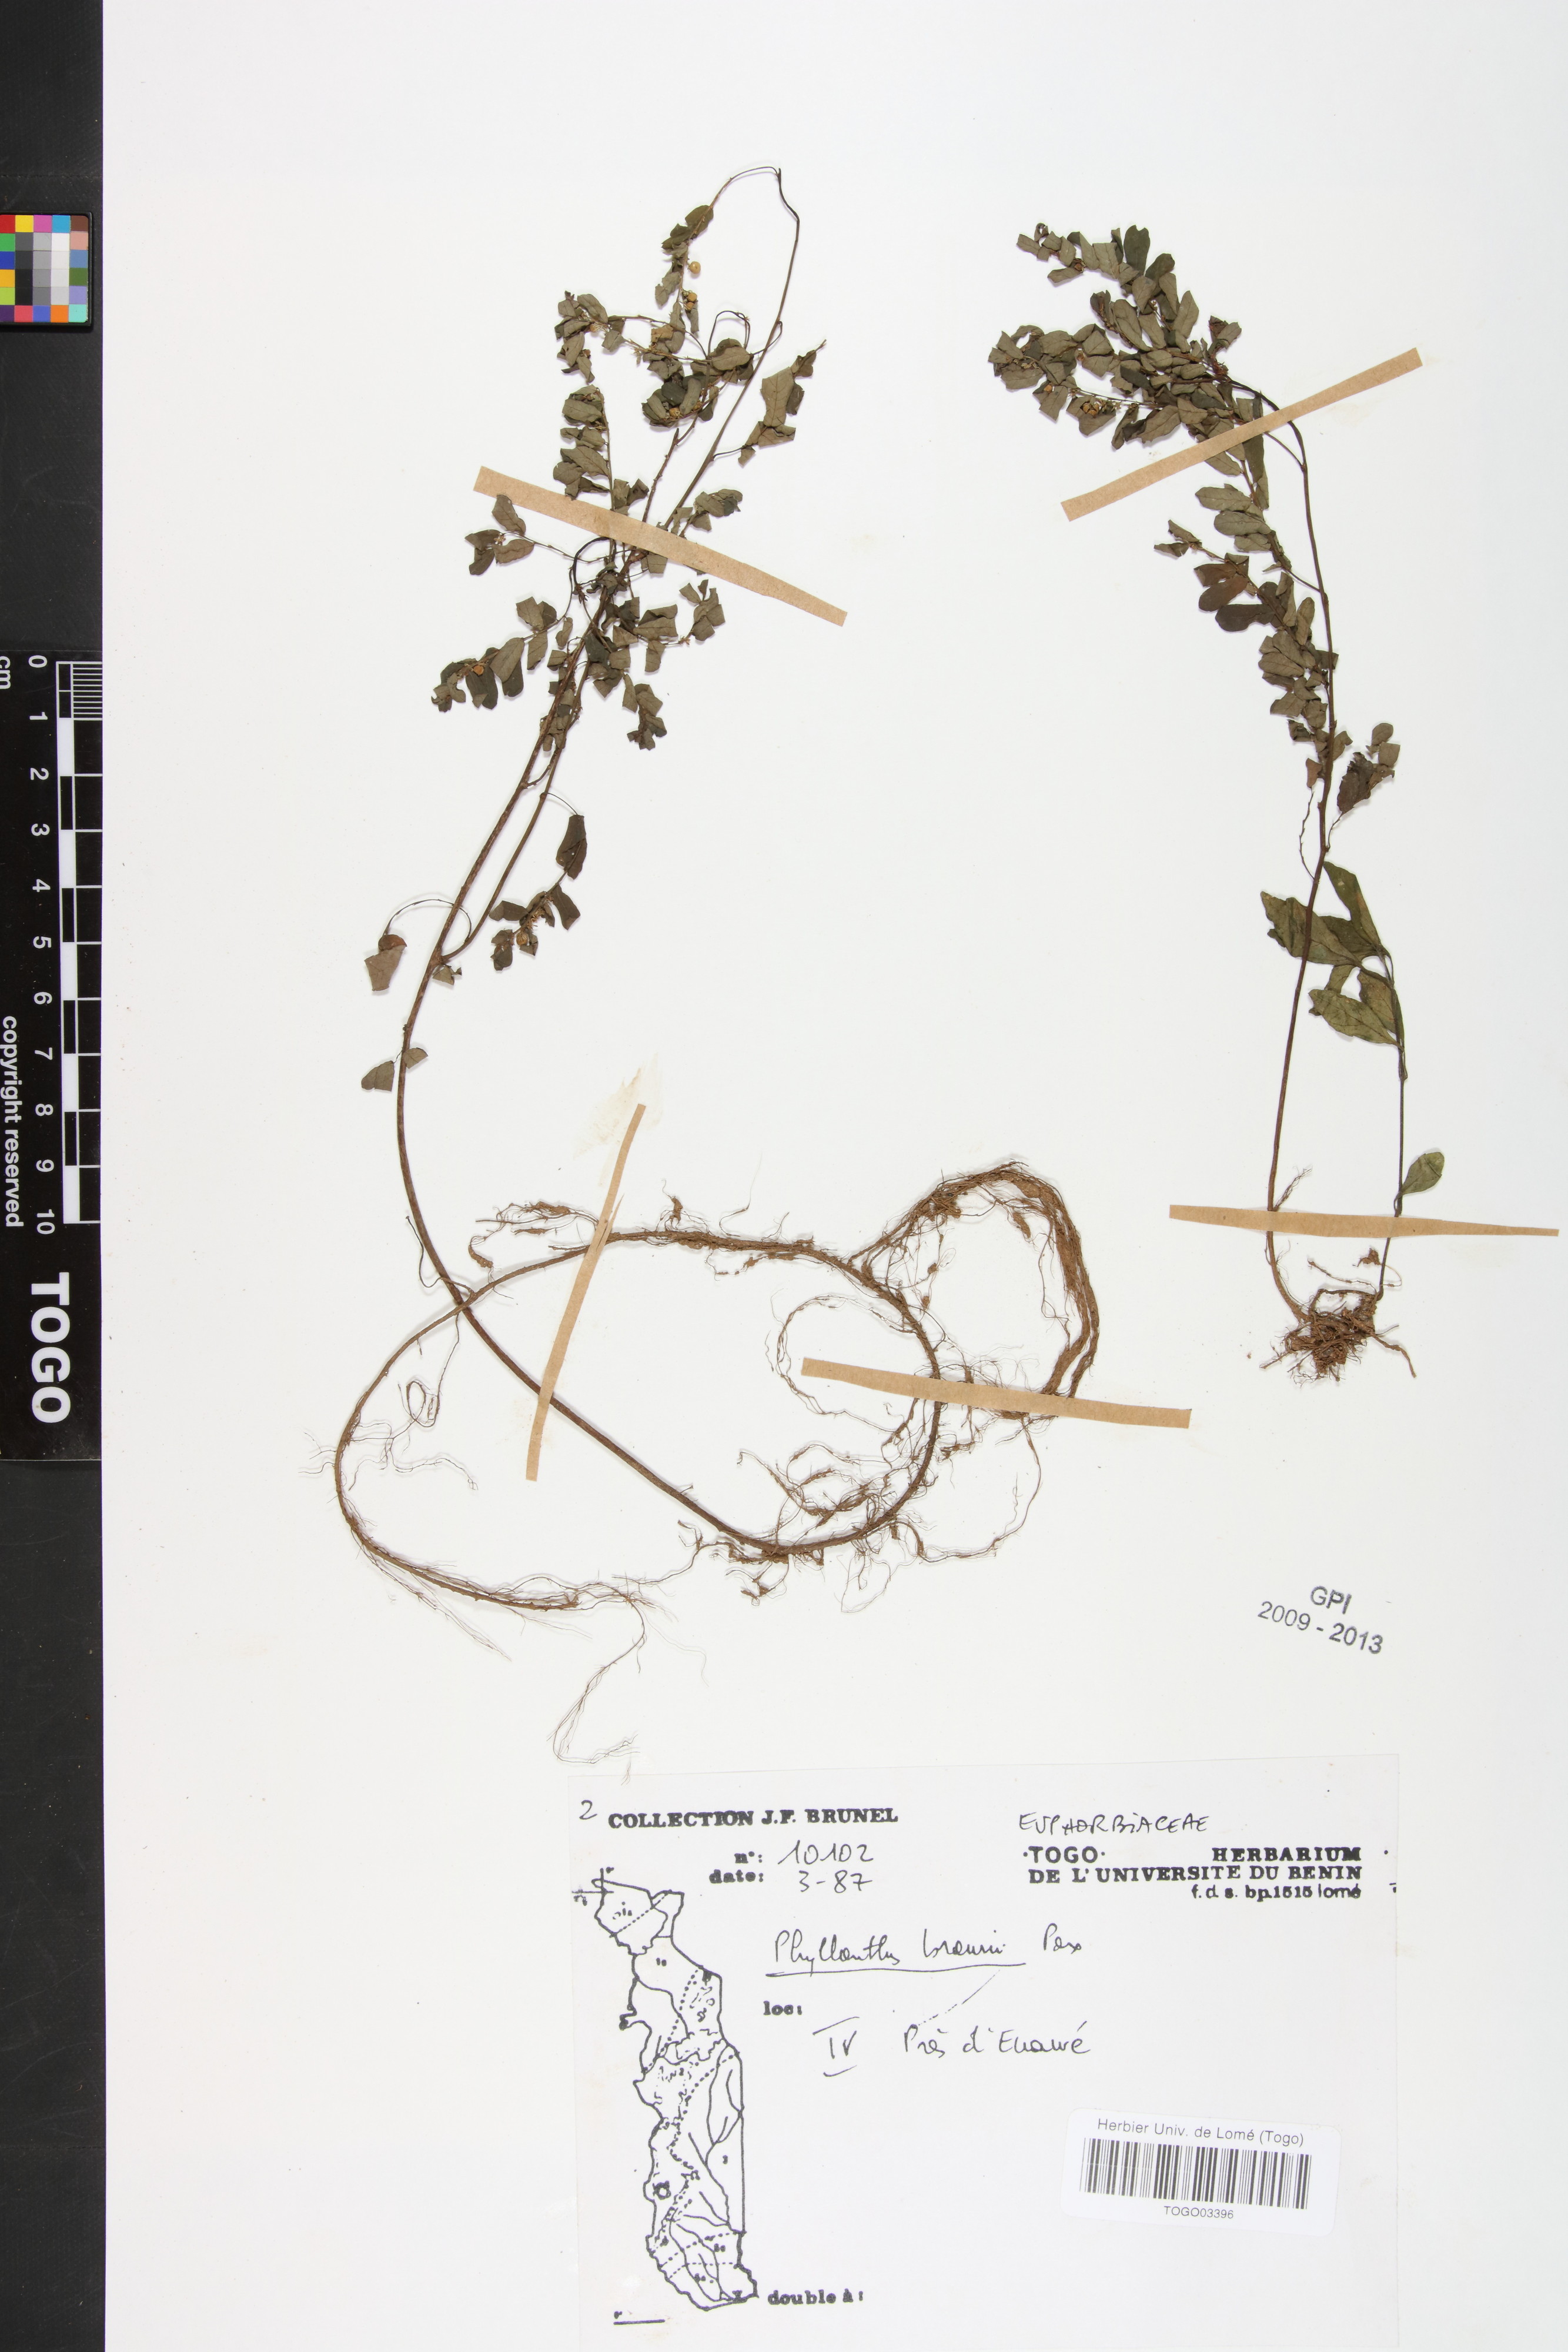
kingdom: Plantae
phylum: Tracheophyta
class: Magnoliopsida
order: Malpighiales
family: Phyllanthaceae
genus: Phyllanthus
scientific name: Phyllanthus odontadenius
